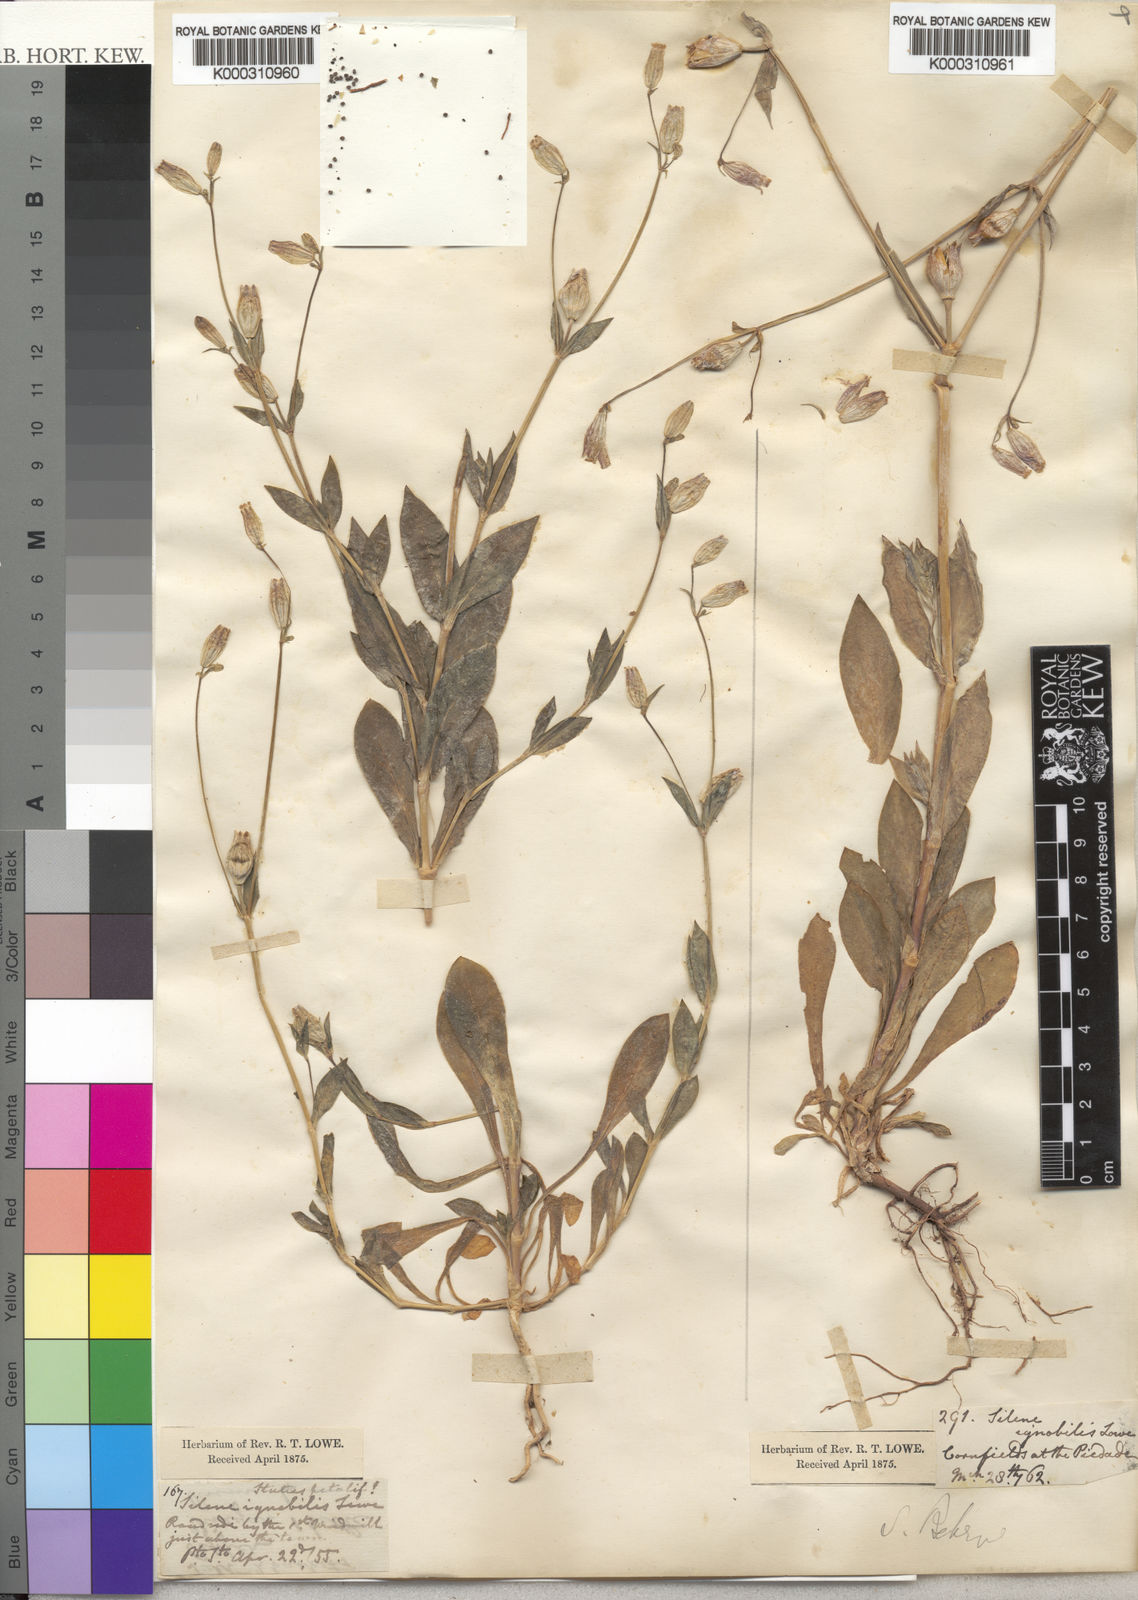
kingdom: Plantae
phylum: Tracheophyta
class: Magnoliopsida
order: Caryophyllales
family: Caryophyllaceae
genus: Silene
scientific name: Silene behen
